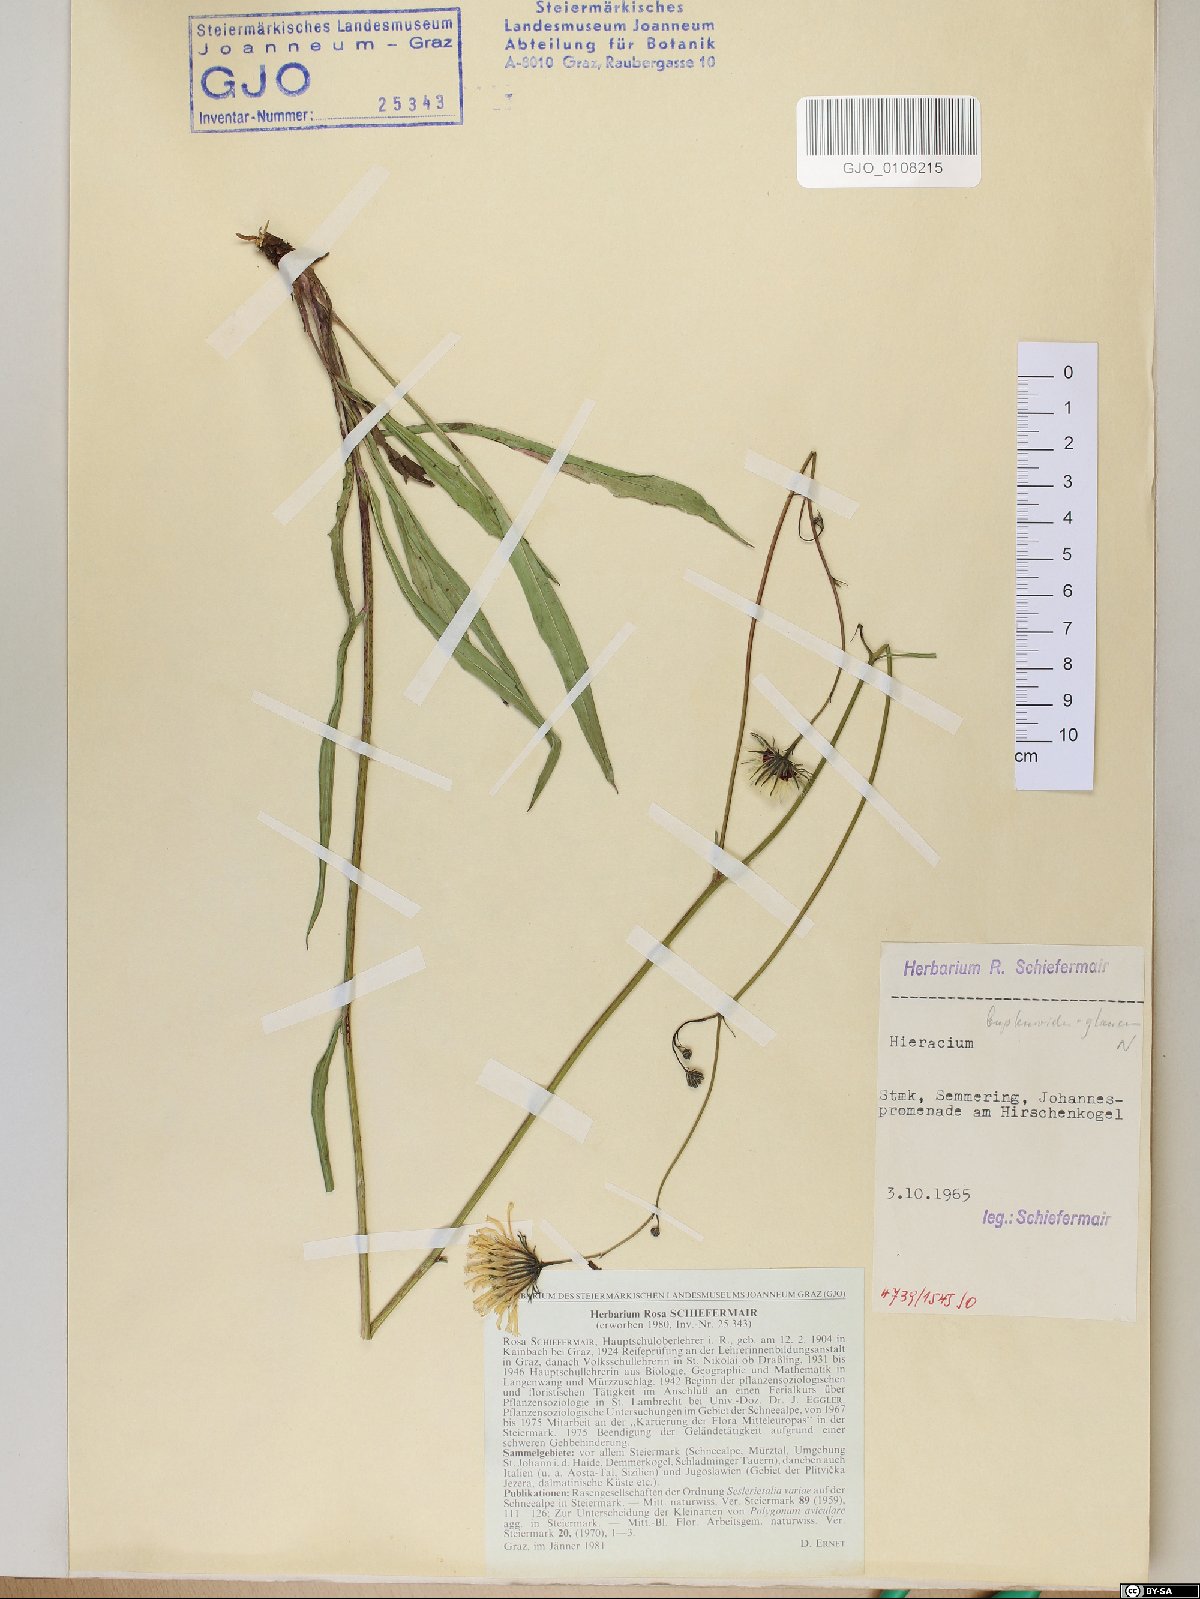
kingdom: Plantae
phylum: Tracheophyta
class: Magnoliopsida
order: Asterales
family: Asteraceae
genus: Hieracium
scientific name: Hieracium bupleuroides
